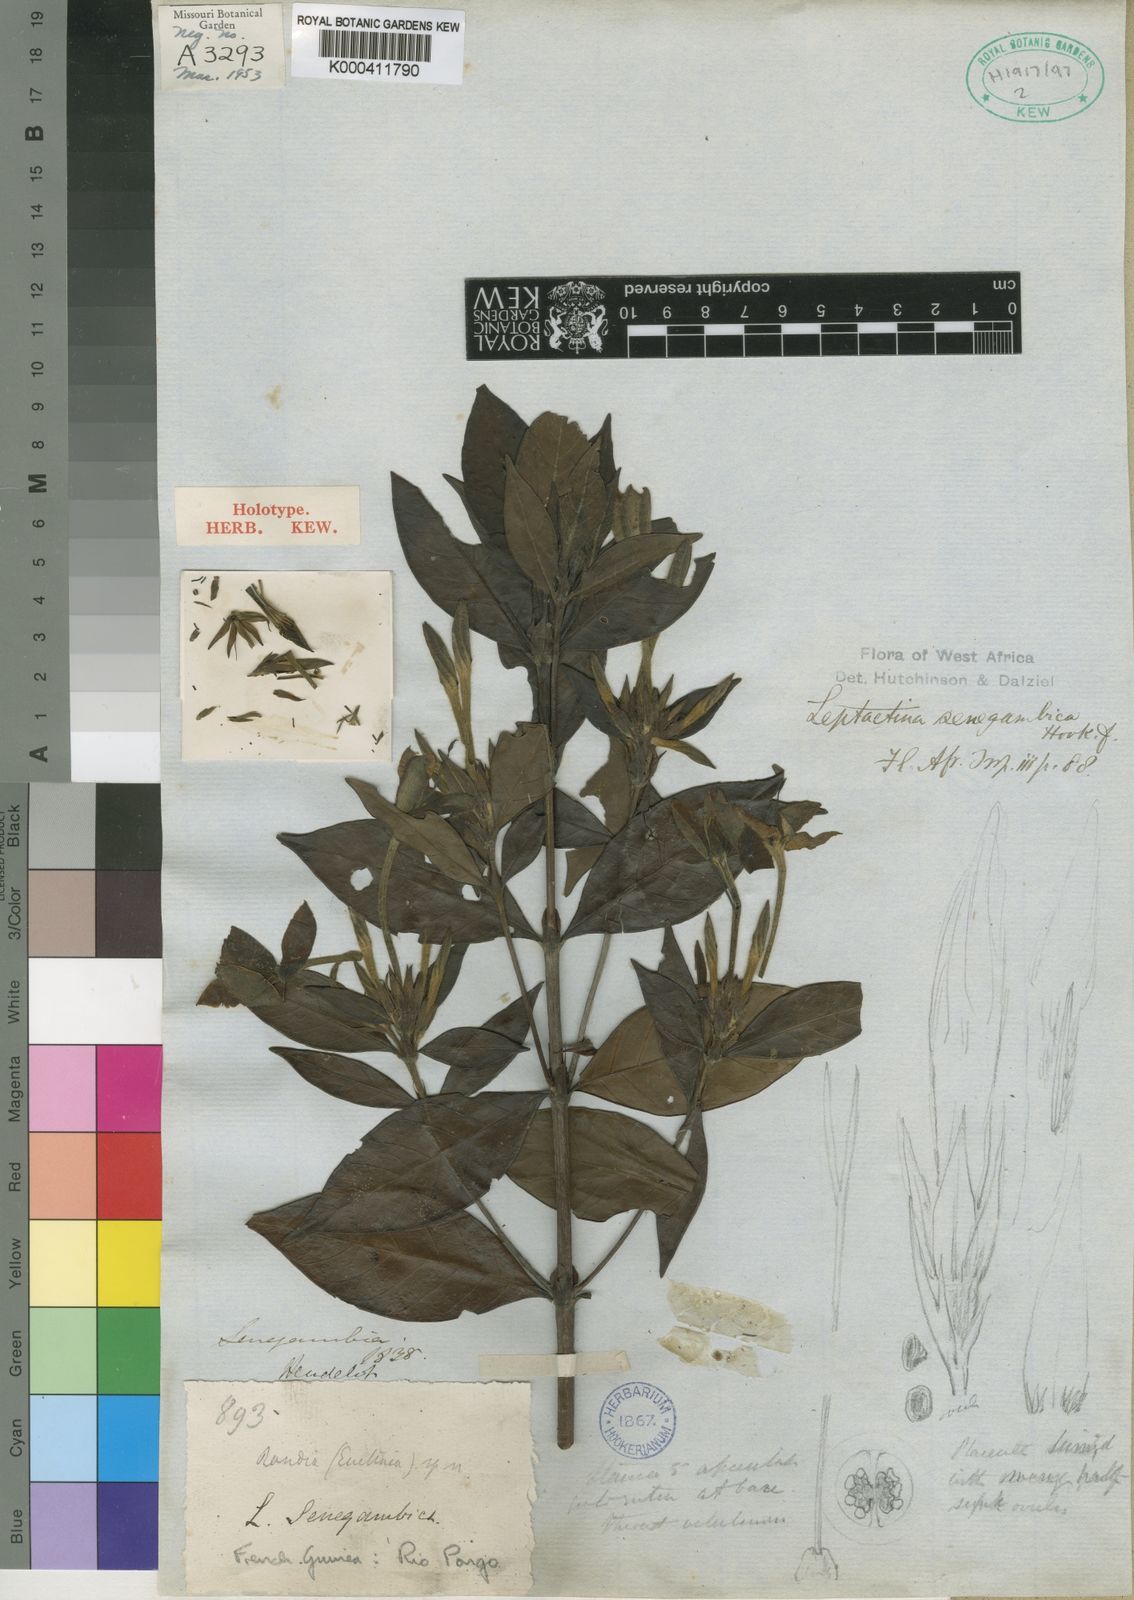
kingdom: Plantae
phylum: Tracheophyta
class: Magnoliopsida
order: Gentianales
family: Rubiaceae
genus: Leptactina
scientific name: Leptactina senegambica
